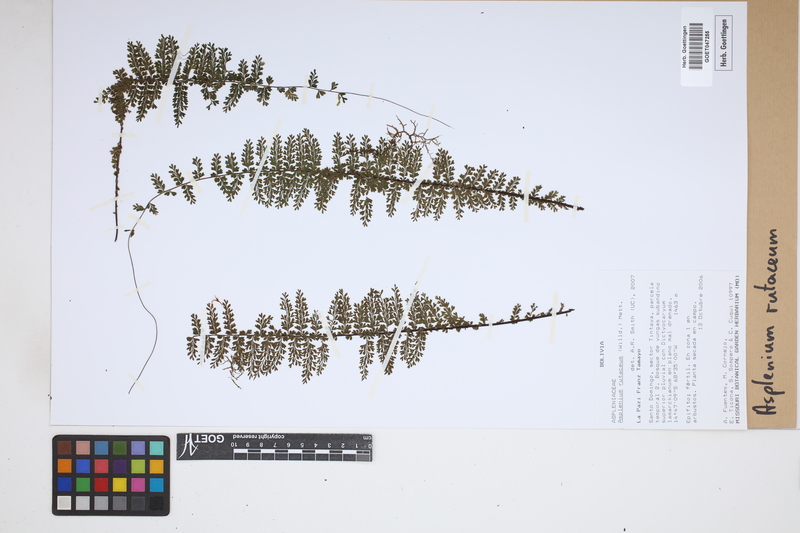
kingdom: Plantae
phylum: Tracheophyta
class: Polypodiopsida
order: Polypodiales
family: Aspleniaceae
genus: Asplenium
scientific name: Asplenium rutaceum
